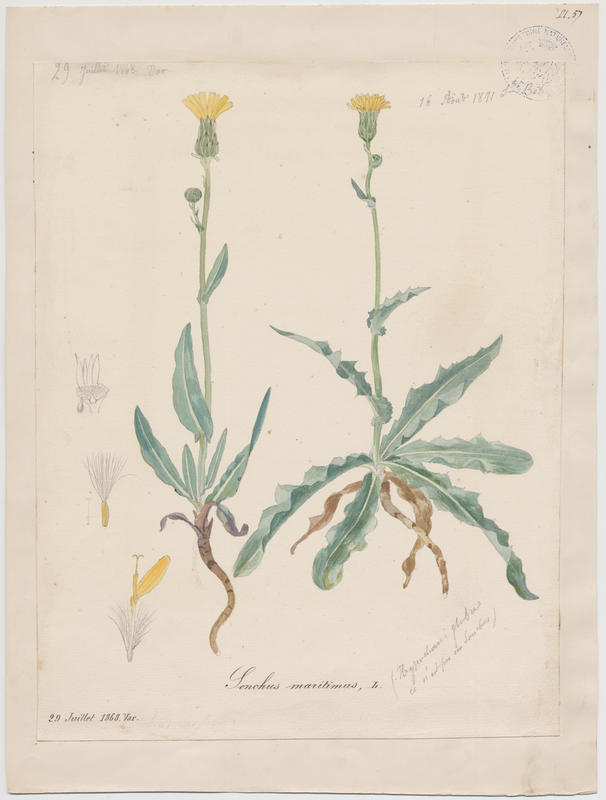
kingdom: Plantae
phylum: Tracheophyta
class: Magnoliopsida
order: Asterales
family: Asteraceae
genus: Sonchus
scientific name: Sonchus maritimus
